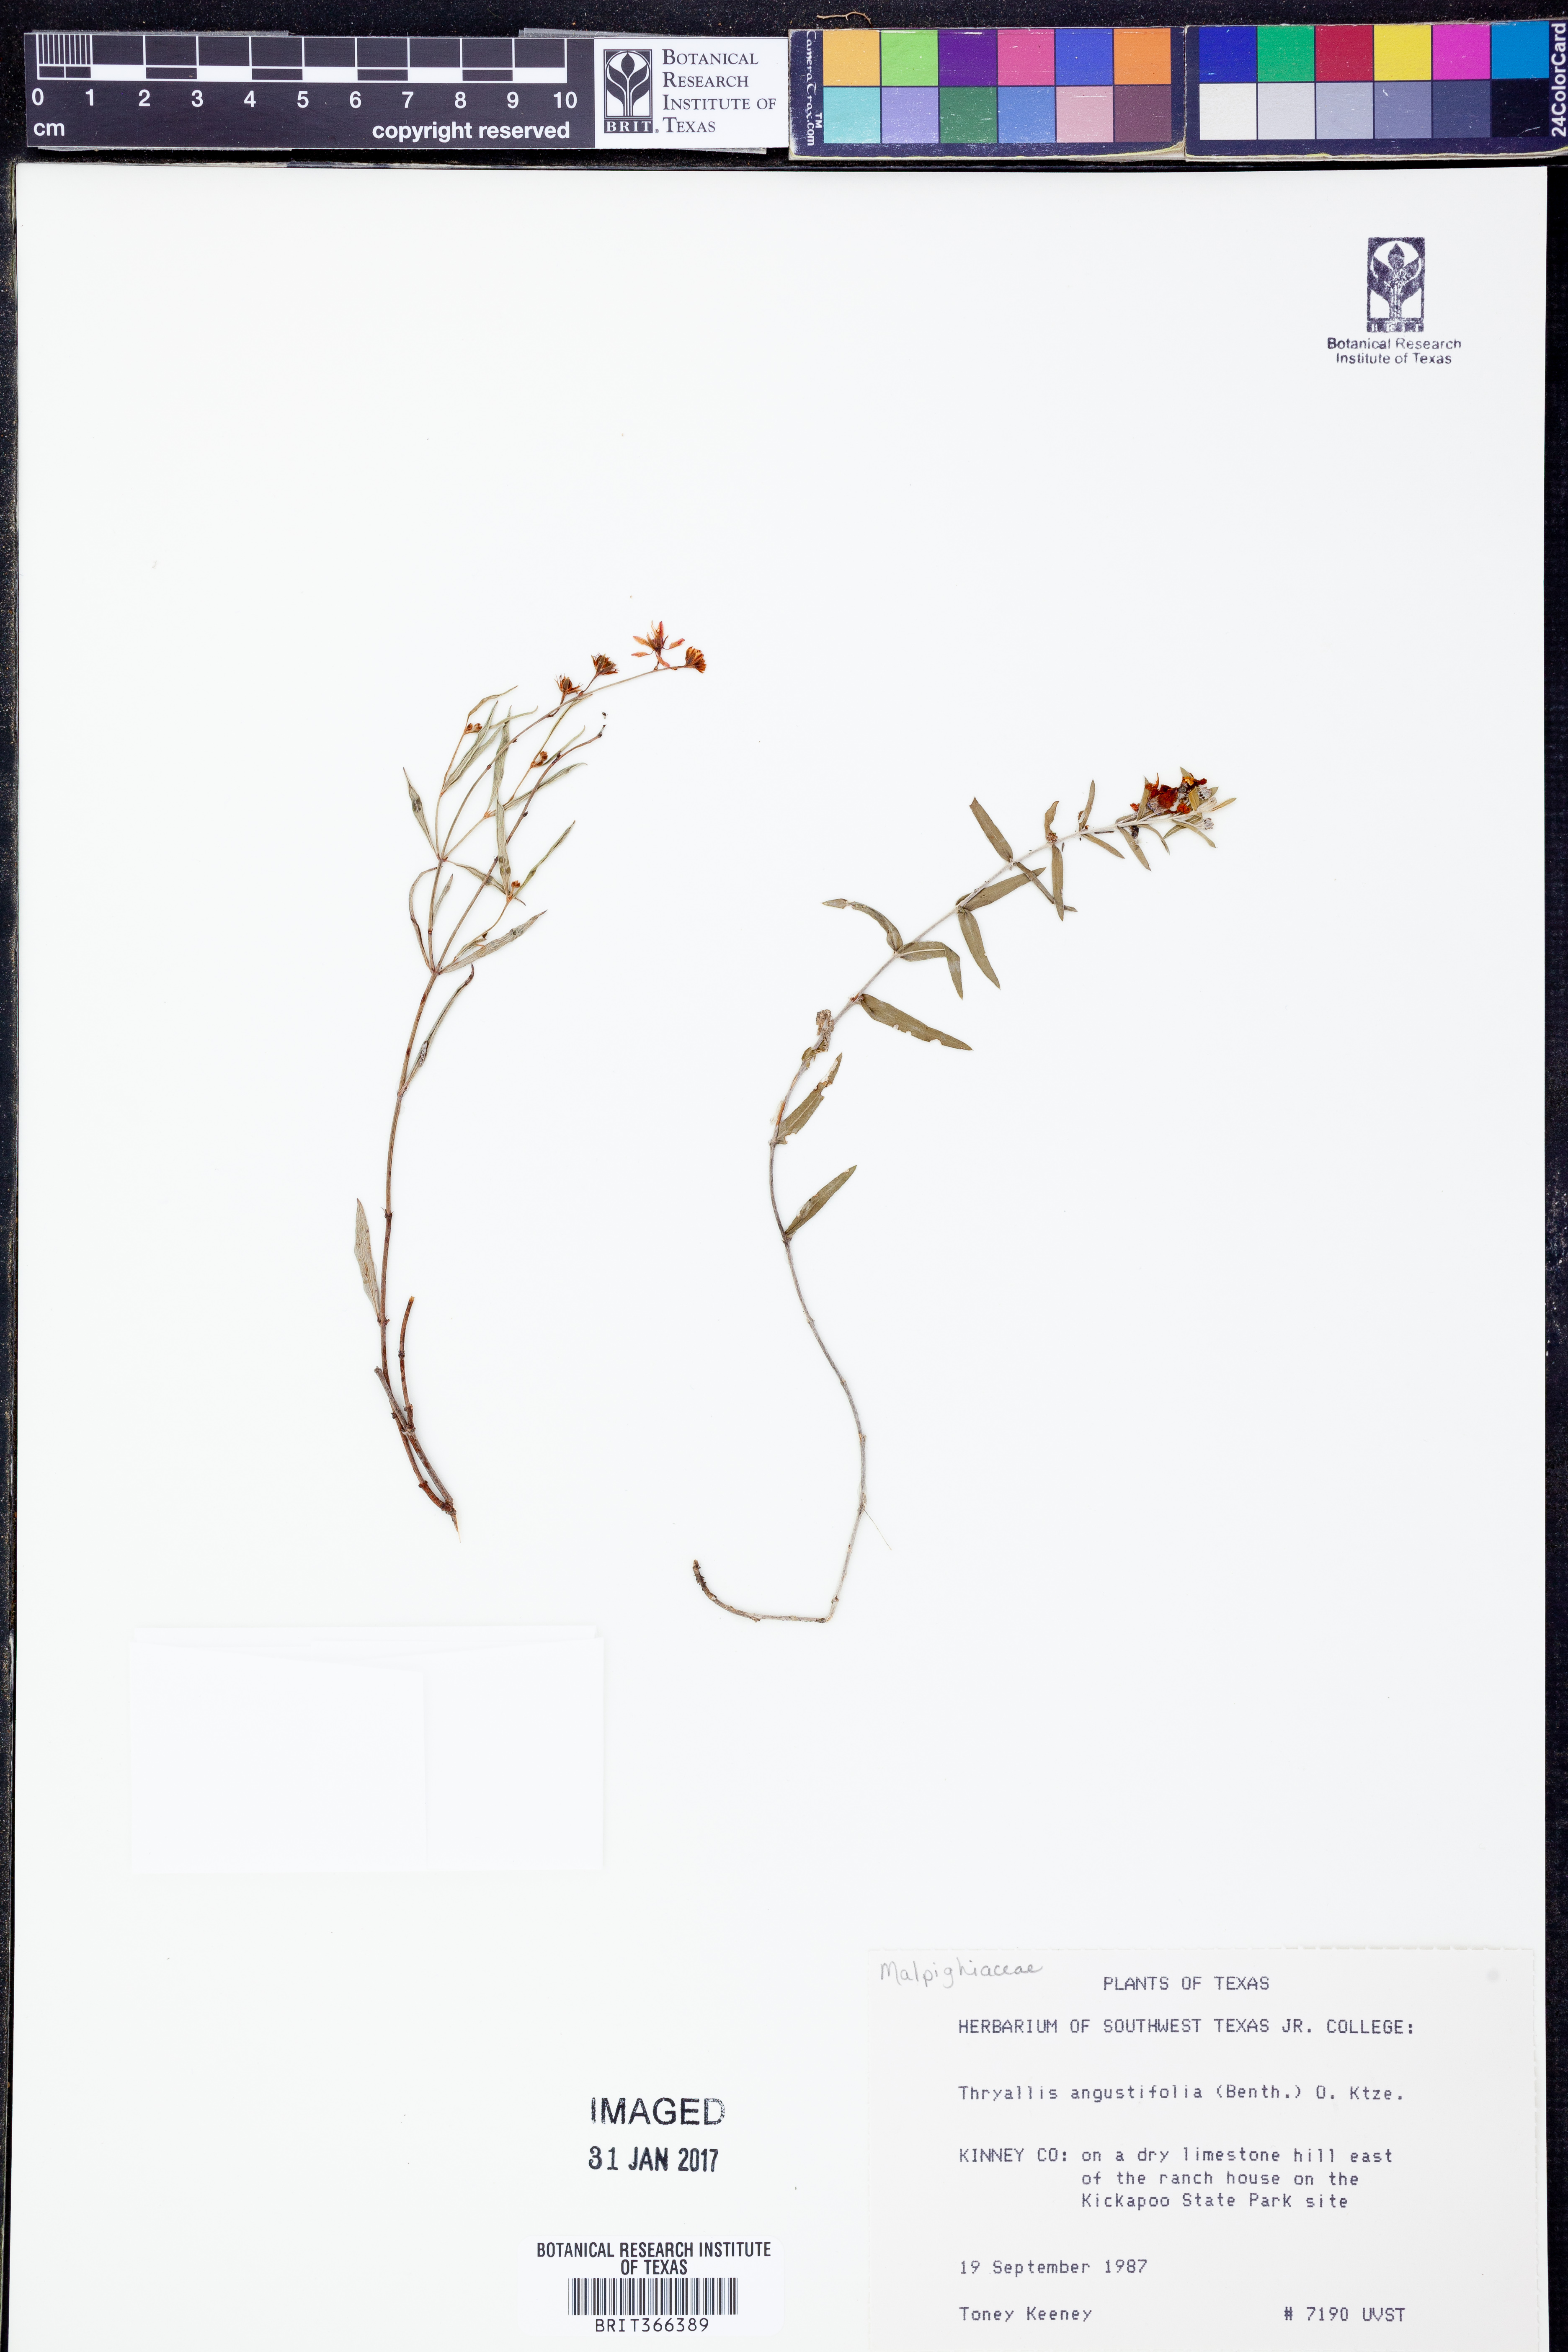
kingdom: Plantae
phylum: Tracheophyta
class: Magnoliopsida
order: Malpighiales
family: Malpighiaceae
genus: Galphimia
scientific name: Galphimia angustifolia
